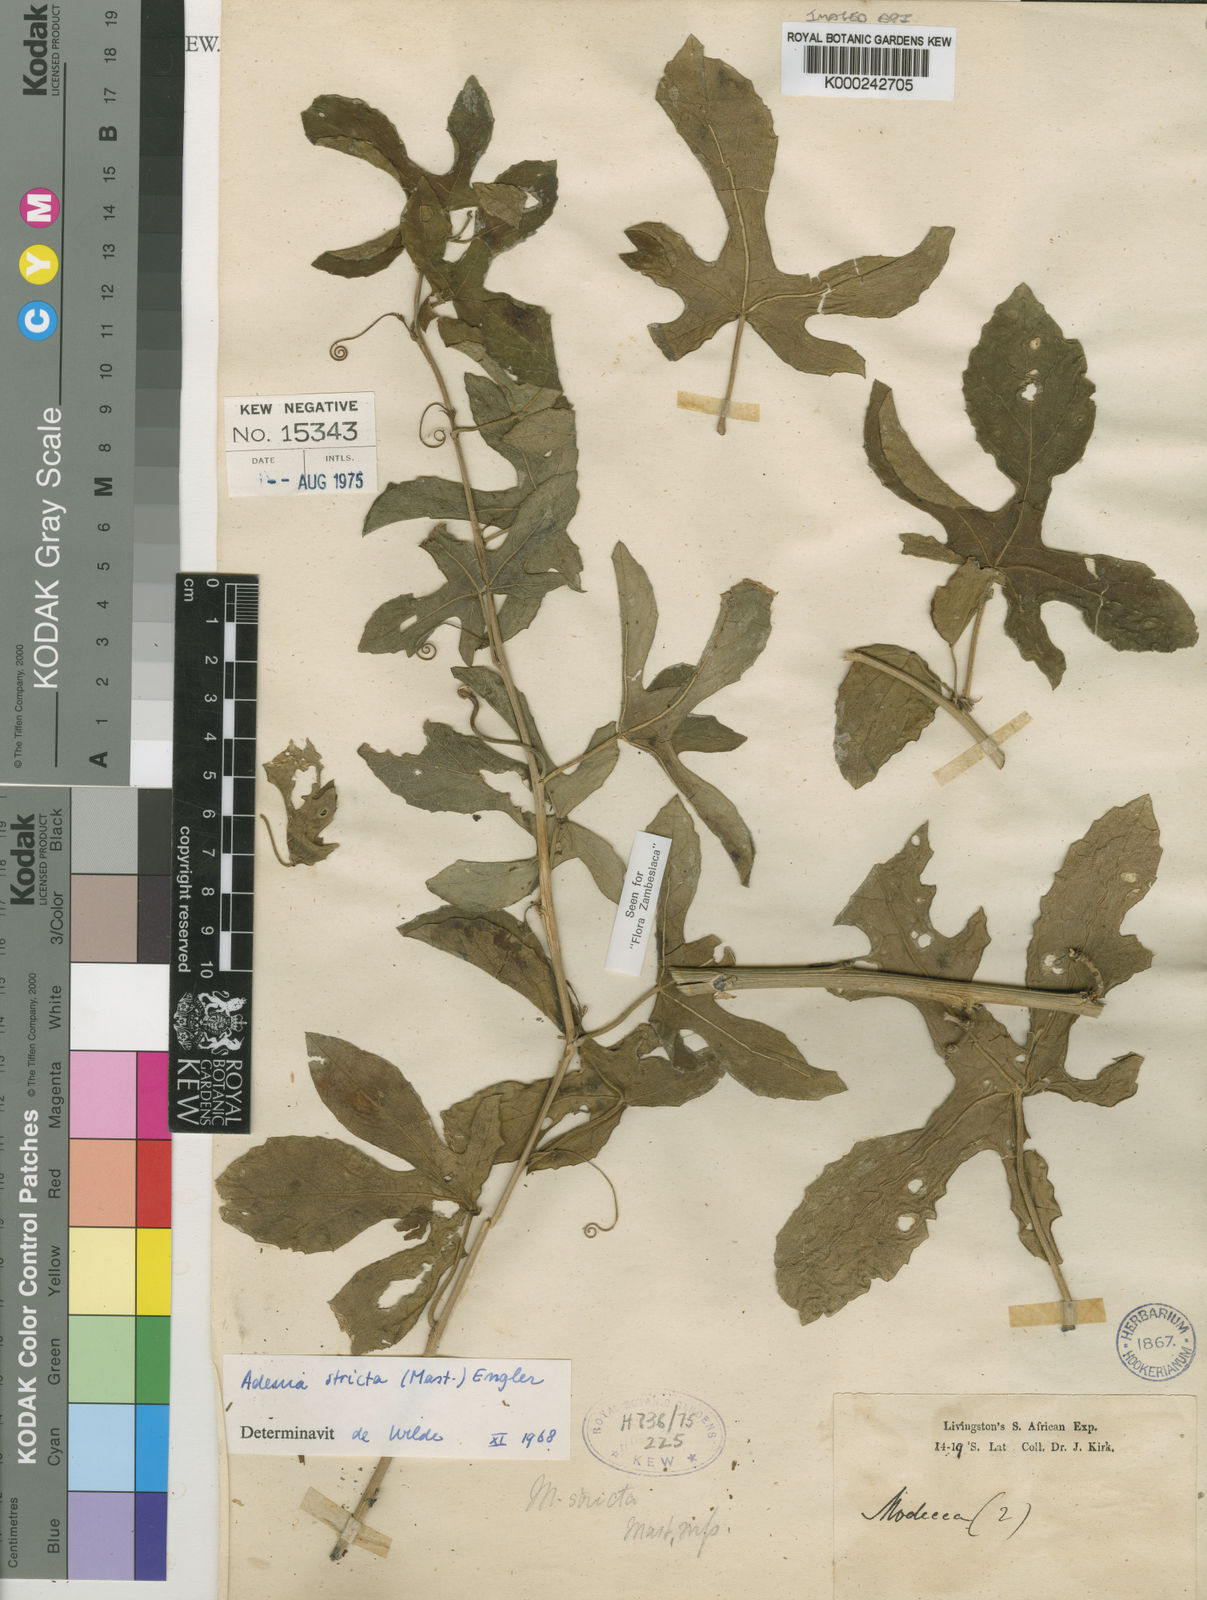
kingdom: Plantae
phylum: Tracheophyta
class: Magnoliopsida
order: Malpighiales
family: Passifloraceae
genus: Adenia
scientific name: Adenia stricta
